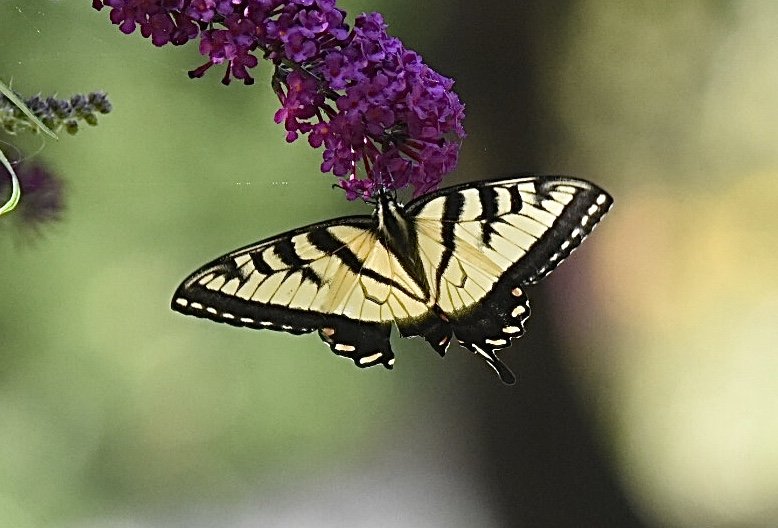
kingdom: Animalia
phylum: Arthropoda
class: Insecta
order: Lepidoptera
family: Papilionidae
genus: Papilio
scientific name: Papilio
